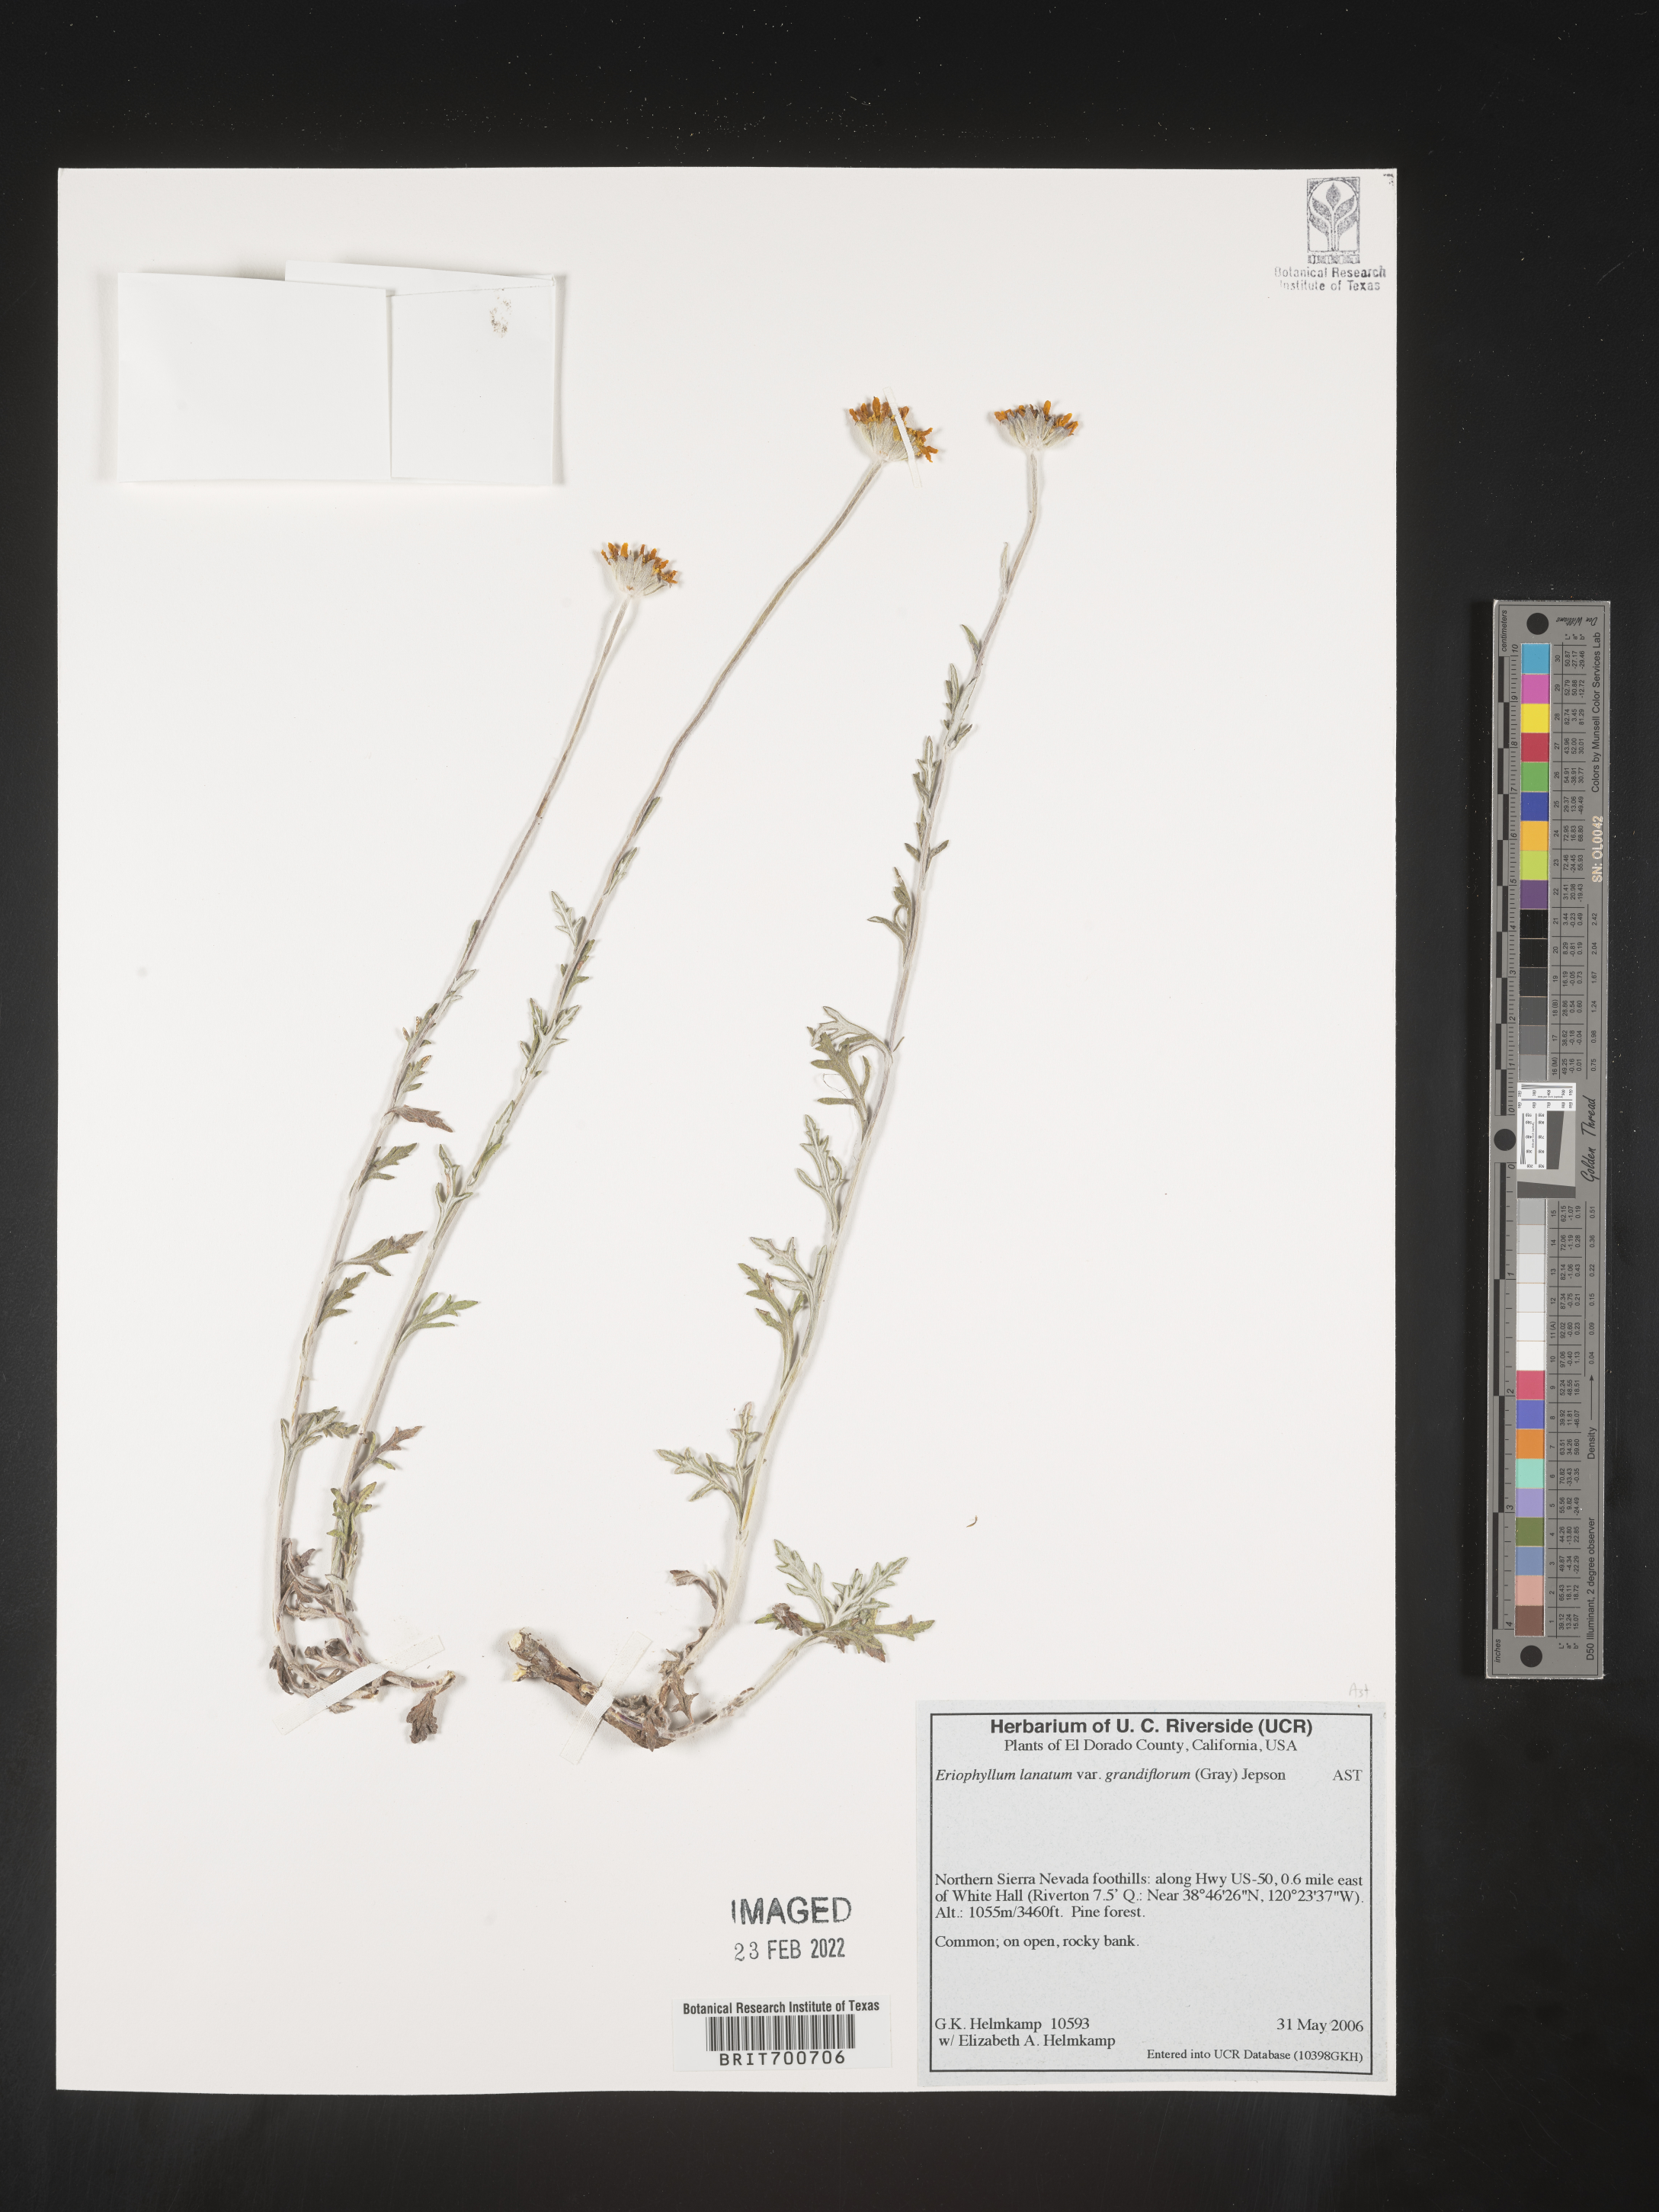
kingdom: Plantae
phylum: Tracheophyta
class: Magnoliopsida
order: Asterales
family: Asteraceae
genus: Eriophyllum
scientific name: Eriophyllum lanatum
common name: Common woolly-sunflower
